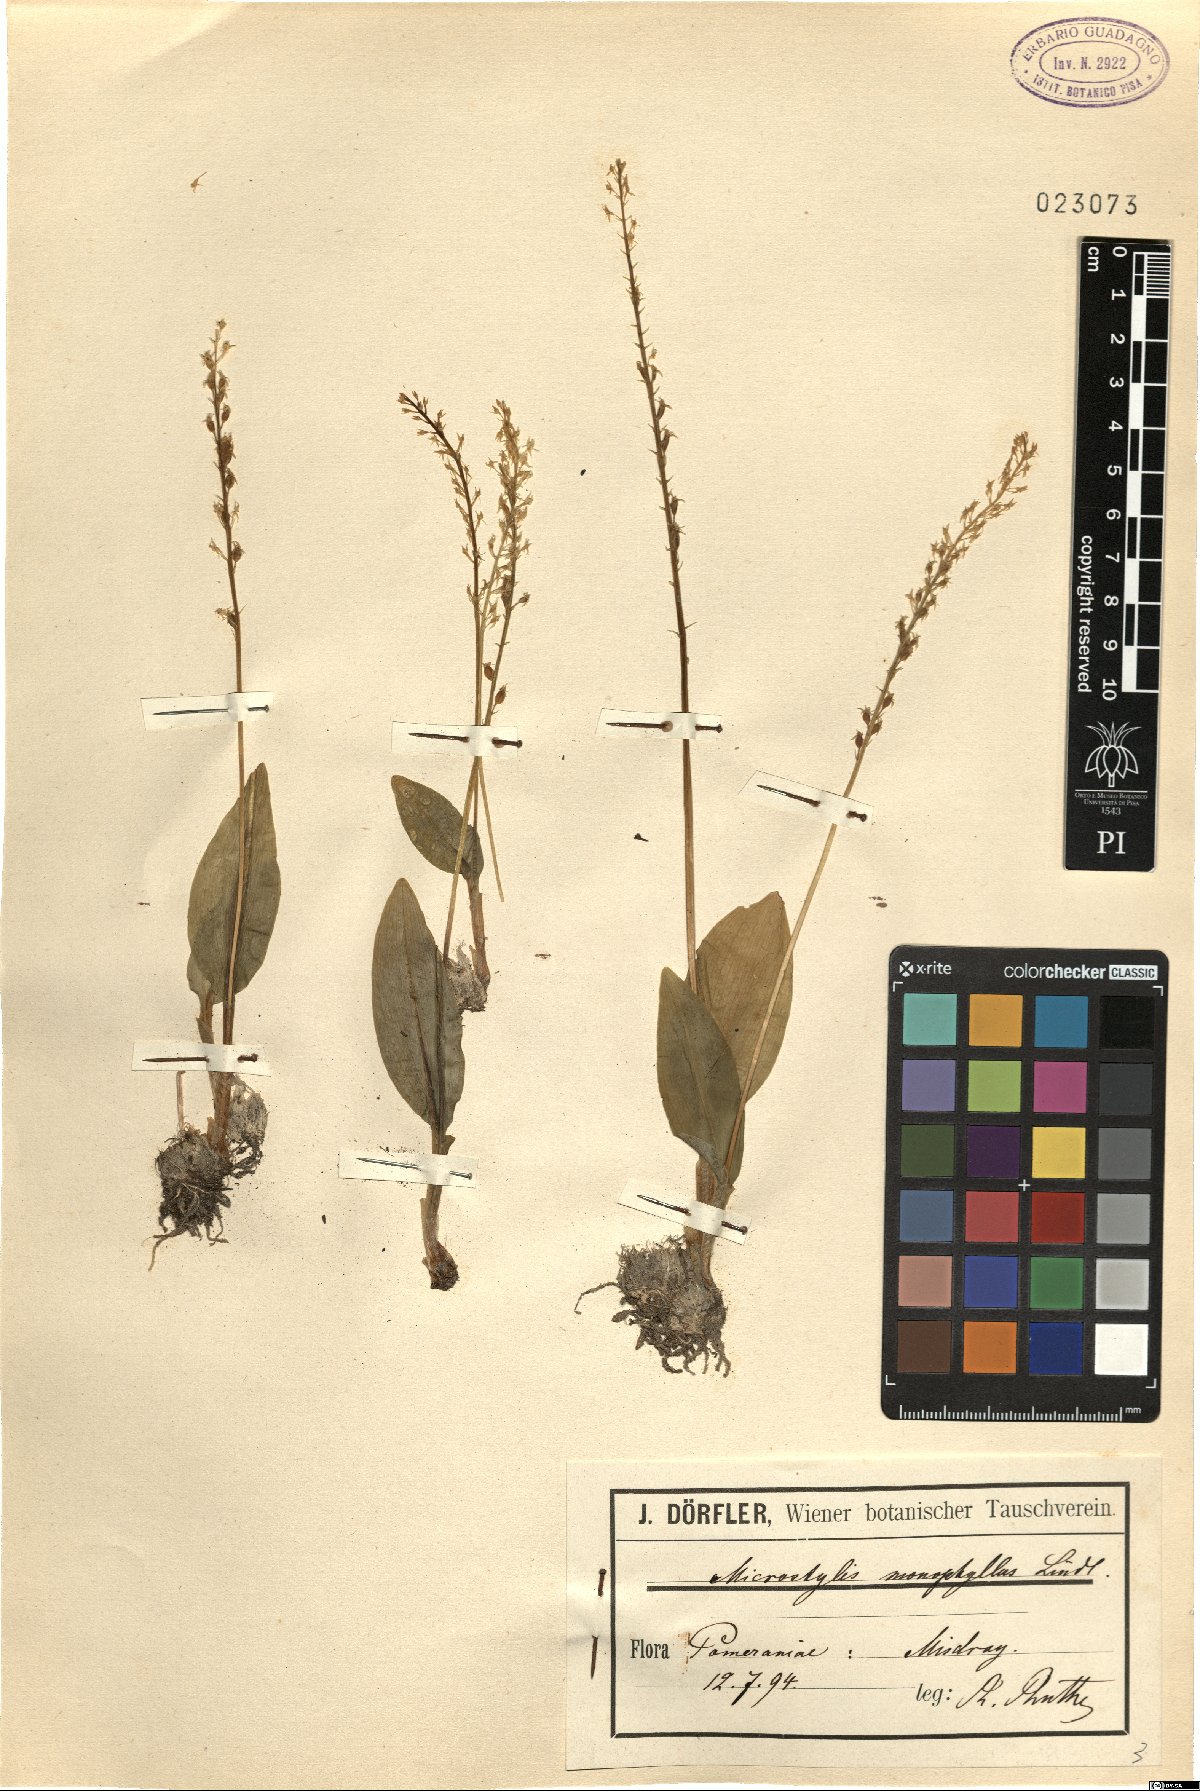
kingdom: Plantae
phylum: Tracheophyta
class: Liliopsida
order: Asparagales
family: Orchidaceae
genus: Malaxis
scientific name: Malaxis monophyllos
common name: White adder's-mouth
